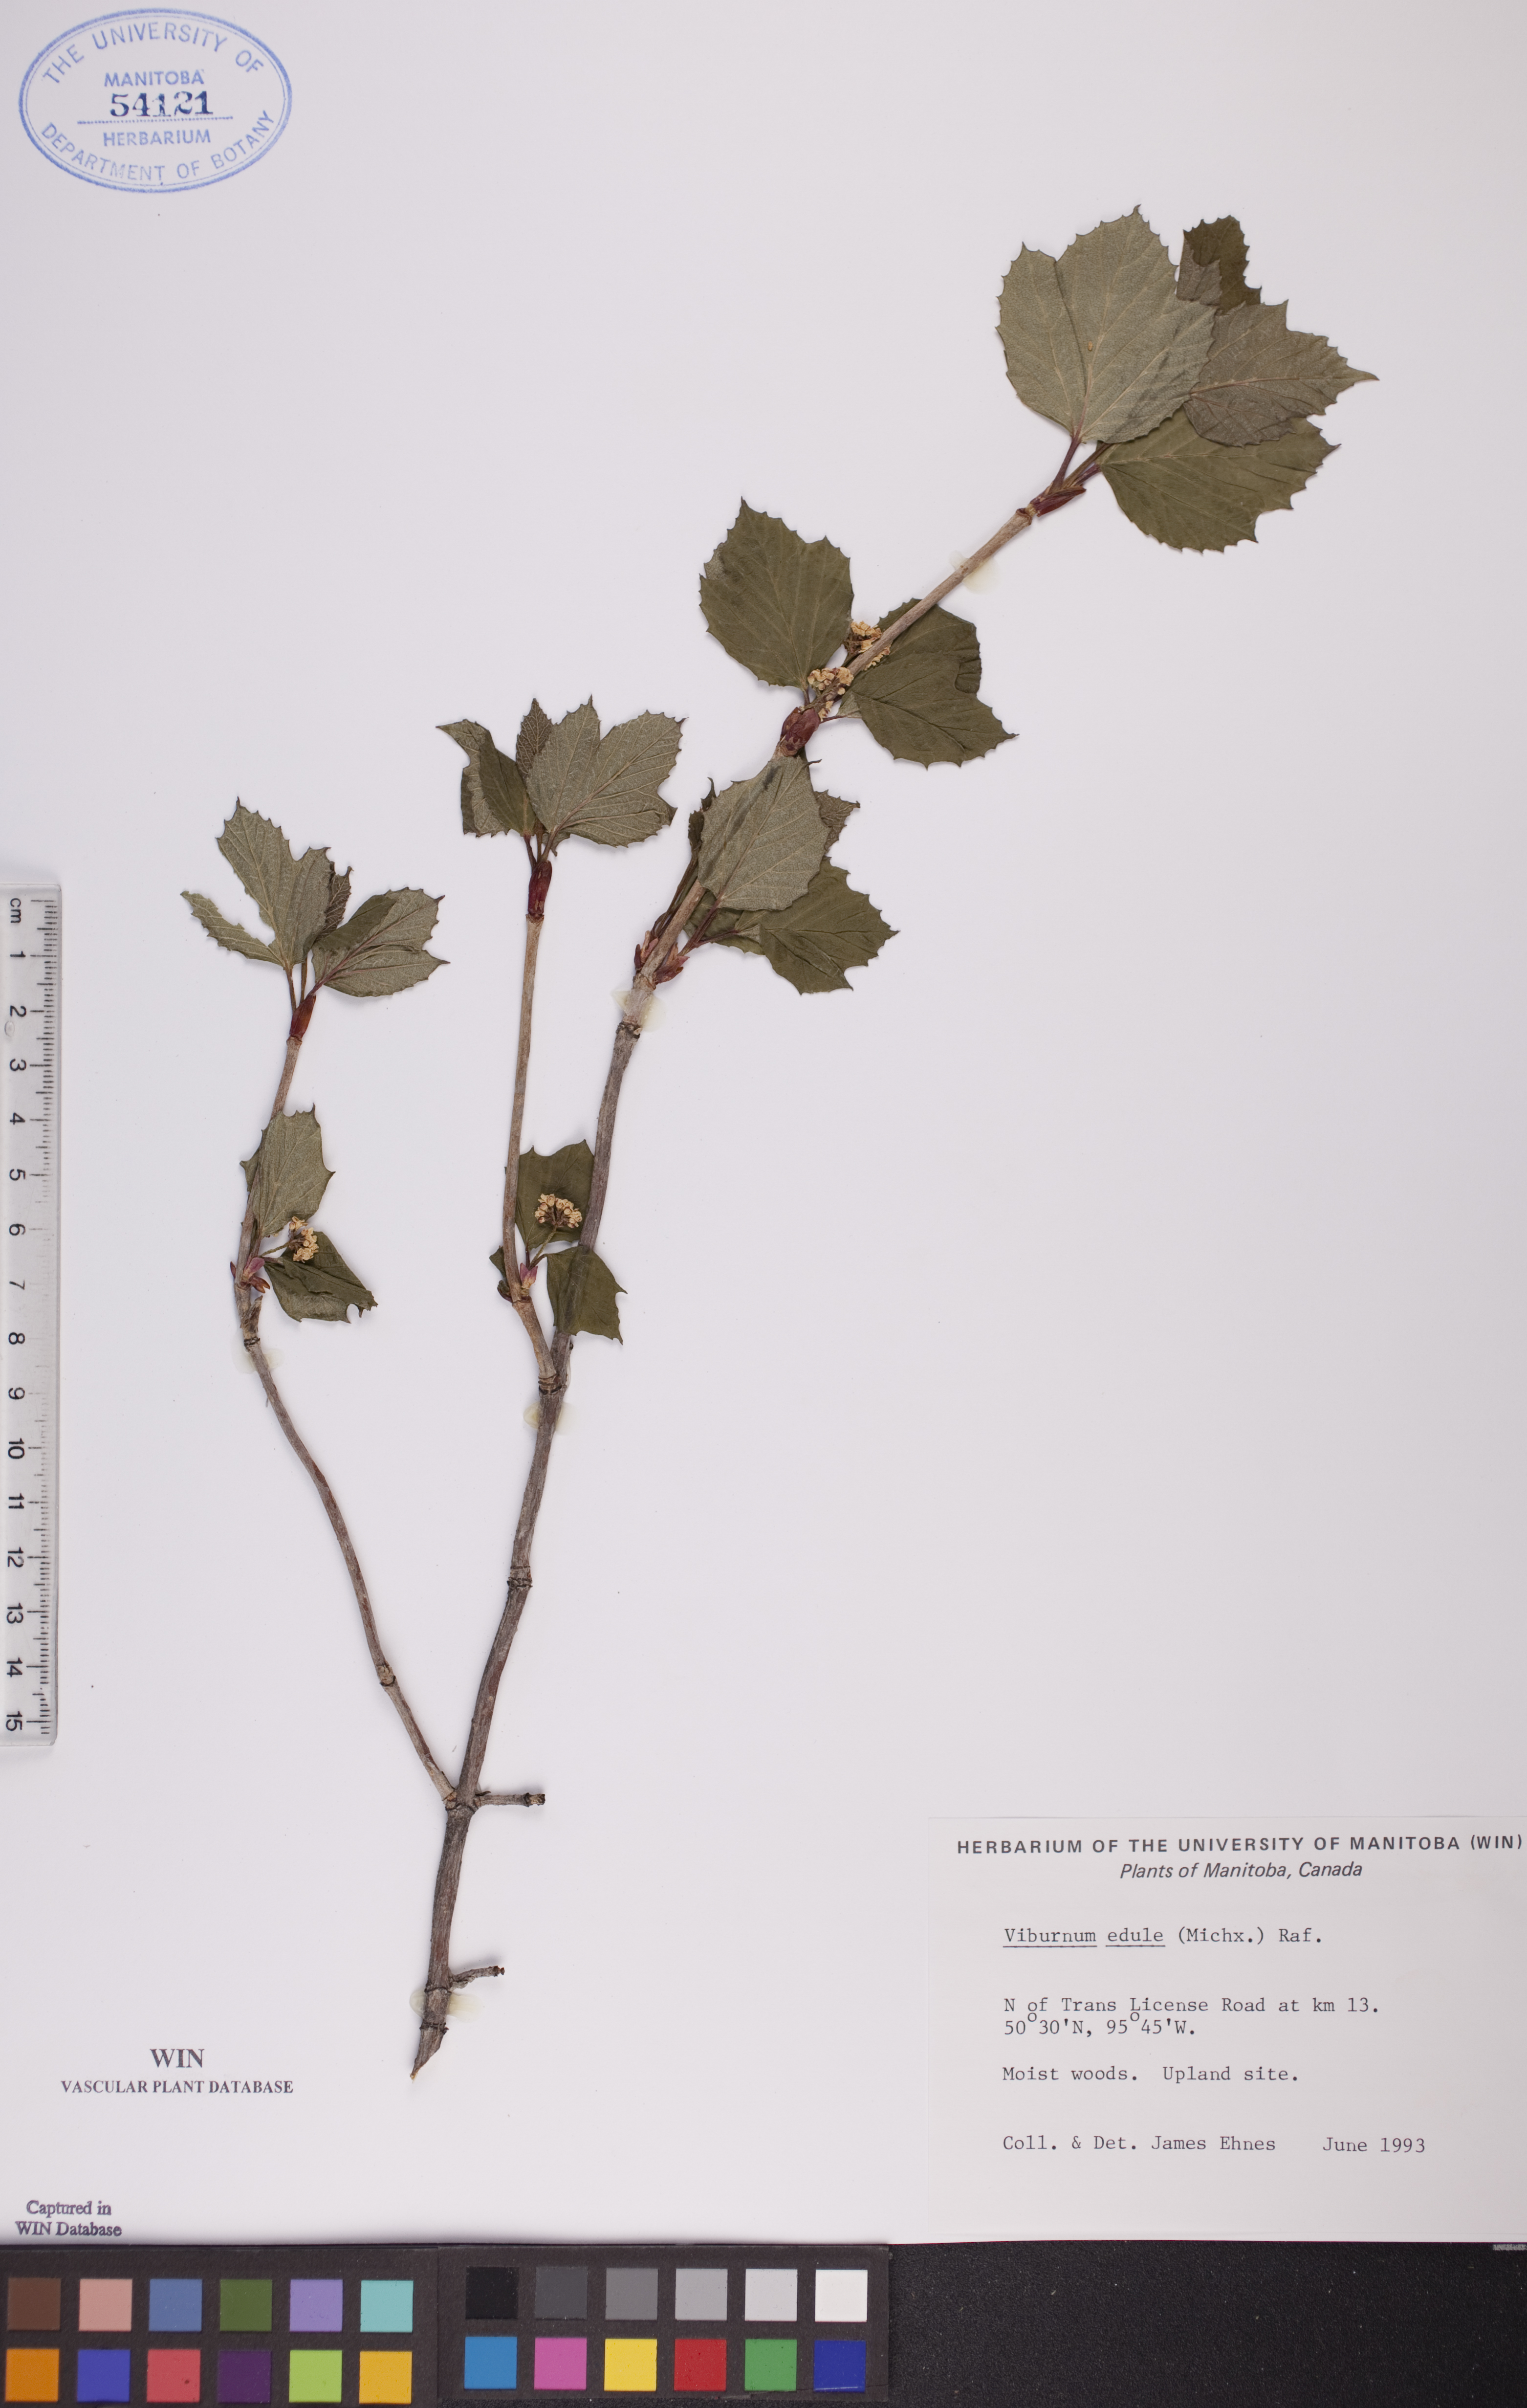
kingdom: Plantae
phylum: Tracheophyta
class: Magnoliopsida
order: Dipsacales
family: Viburnaceae
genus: Viburnum
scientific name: Viburnum edule
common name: Mooseberry
